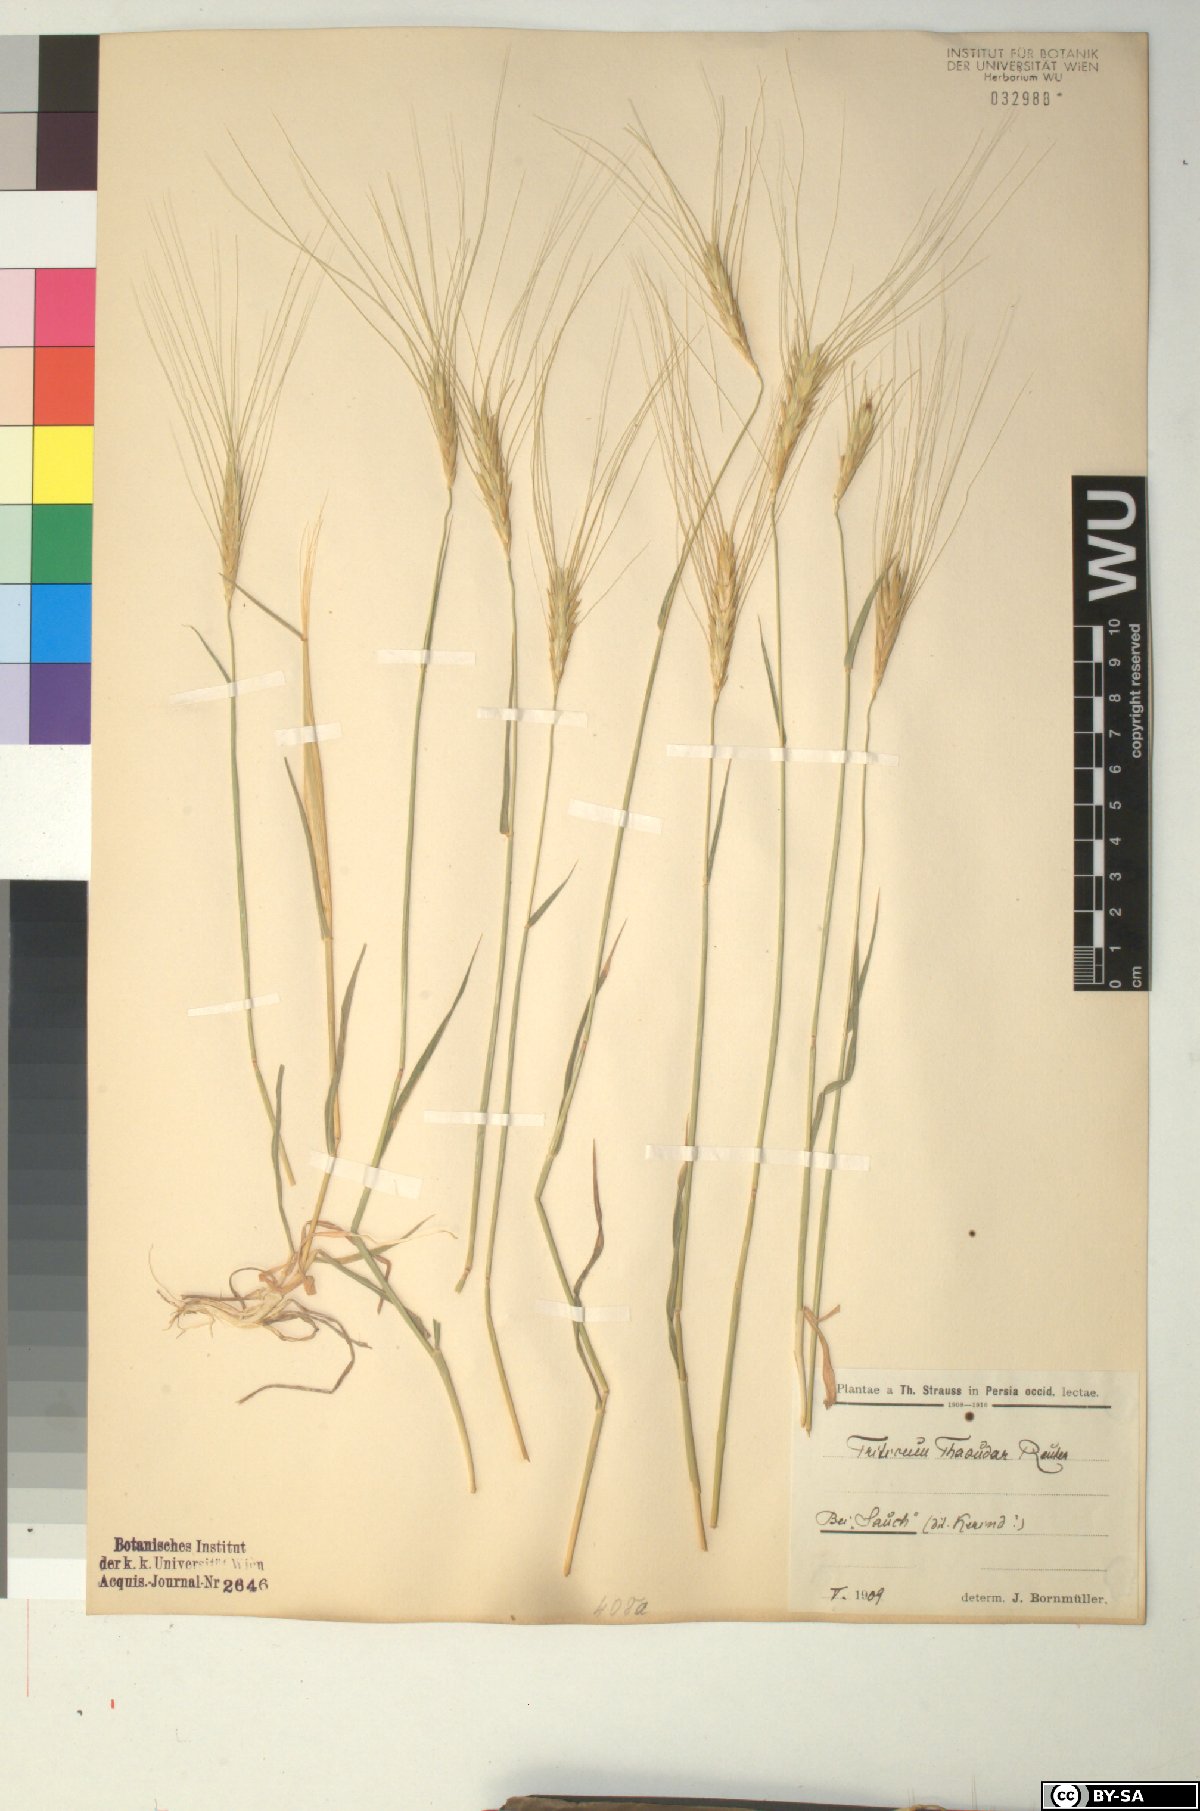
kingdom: Plantae
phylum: Tracheophyta
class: Liliopsida
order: Poales
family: Poaceae
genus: Triticum
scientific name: Triticum monococcum
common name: Einkorn
